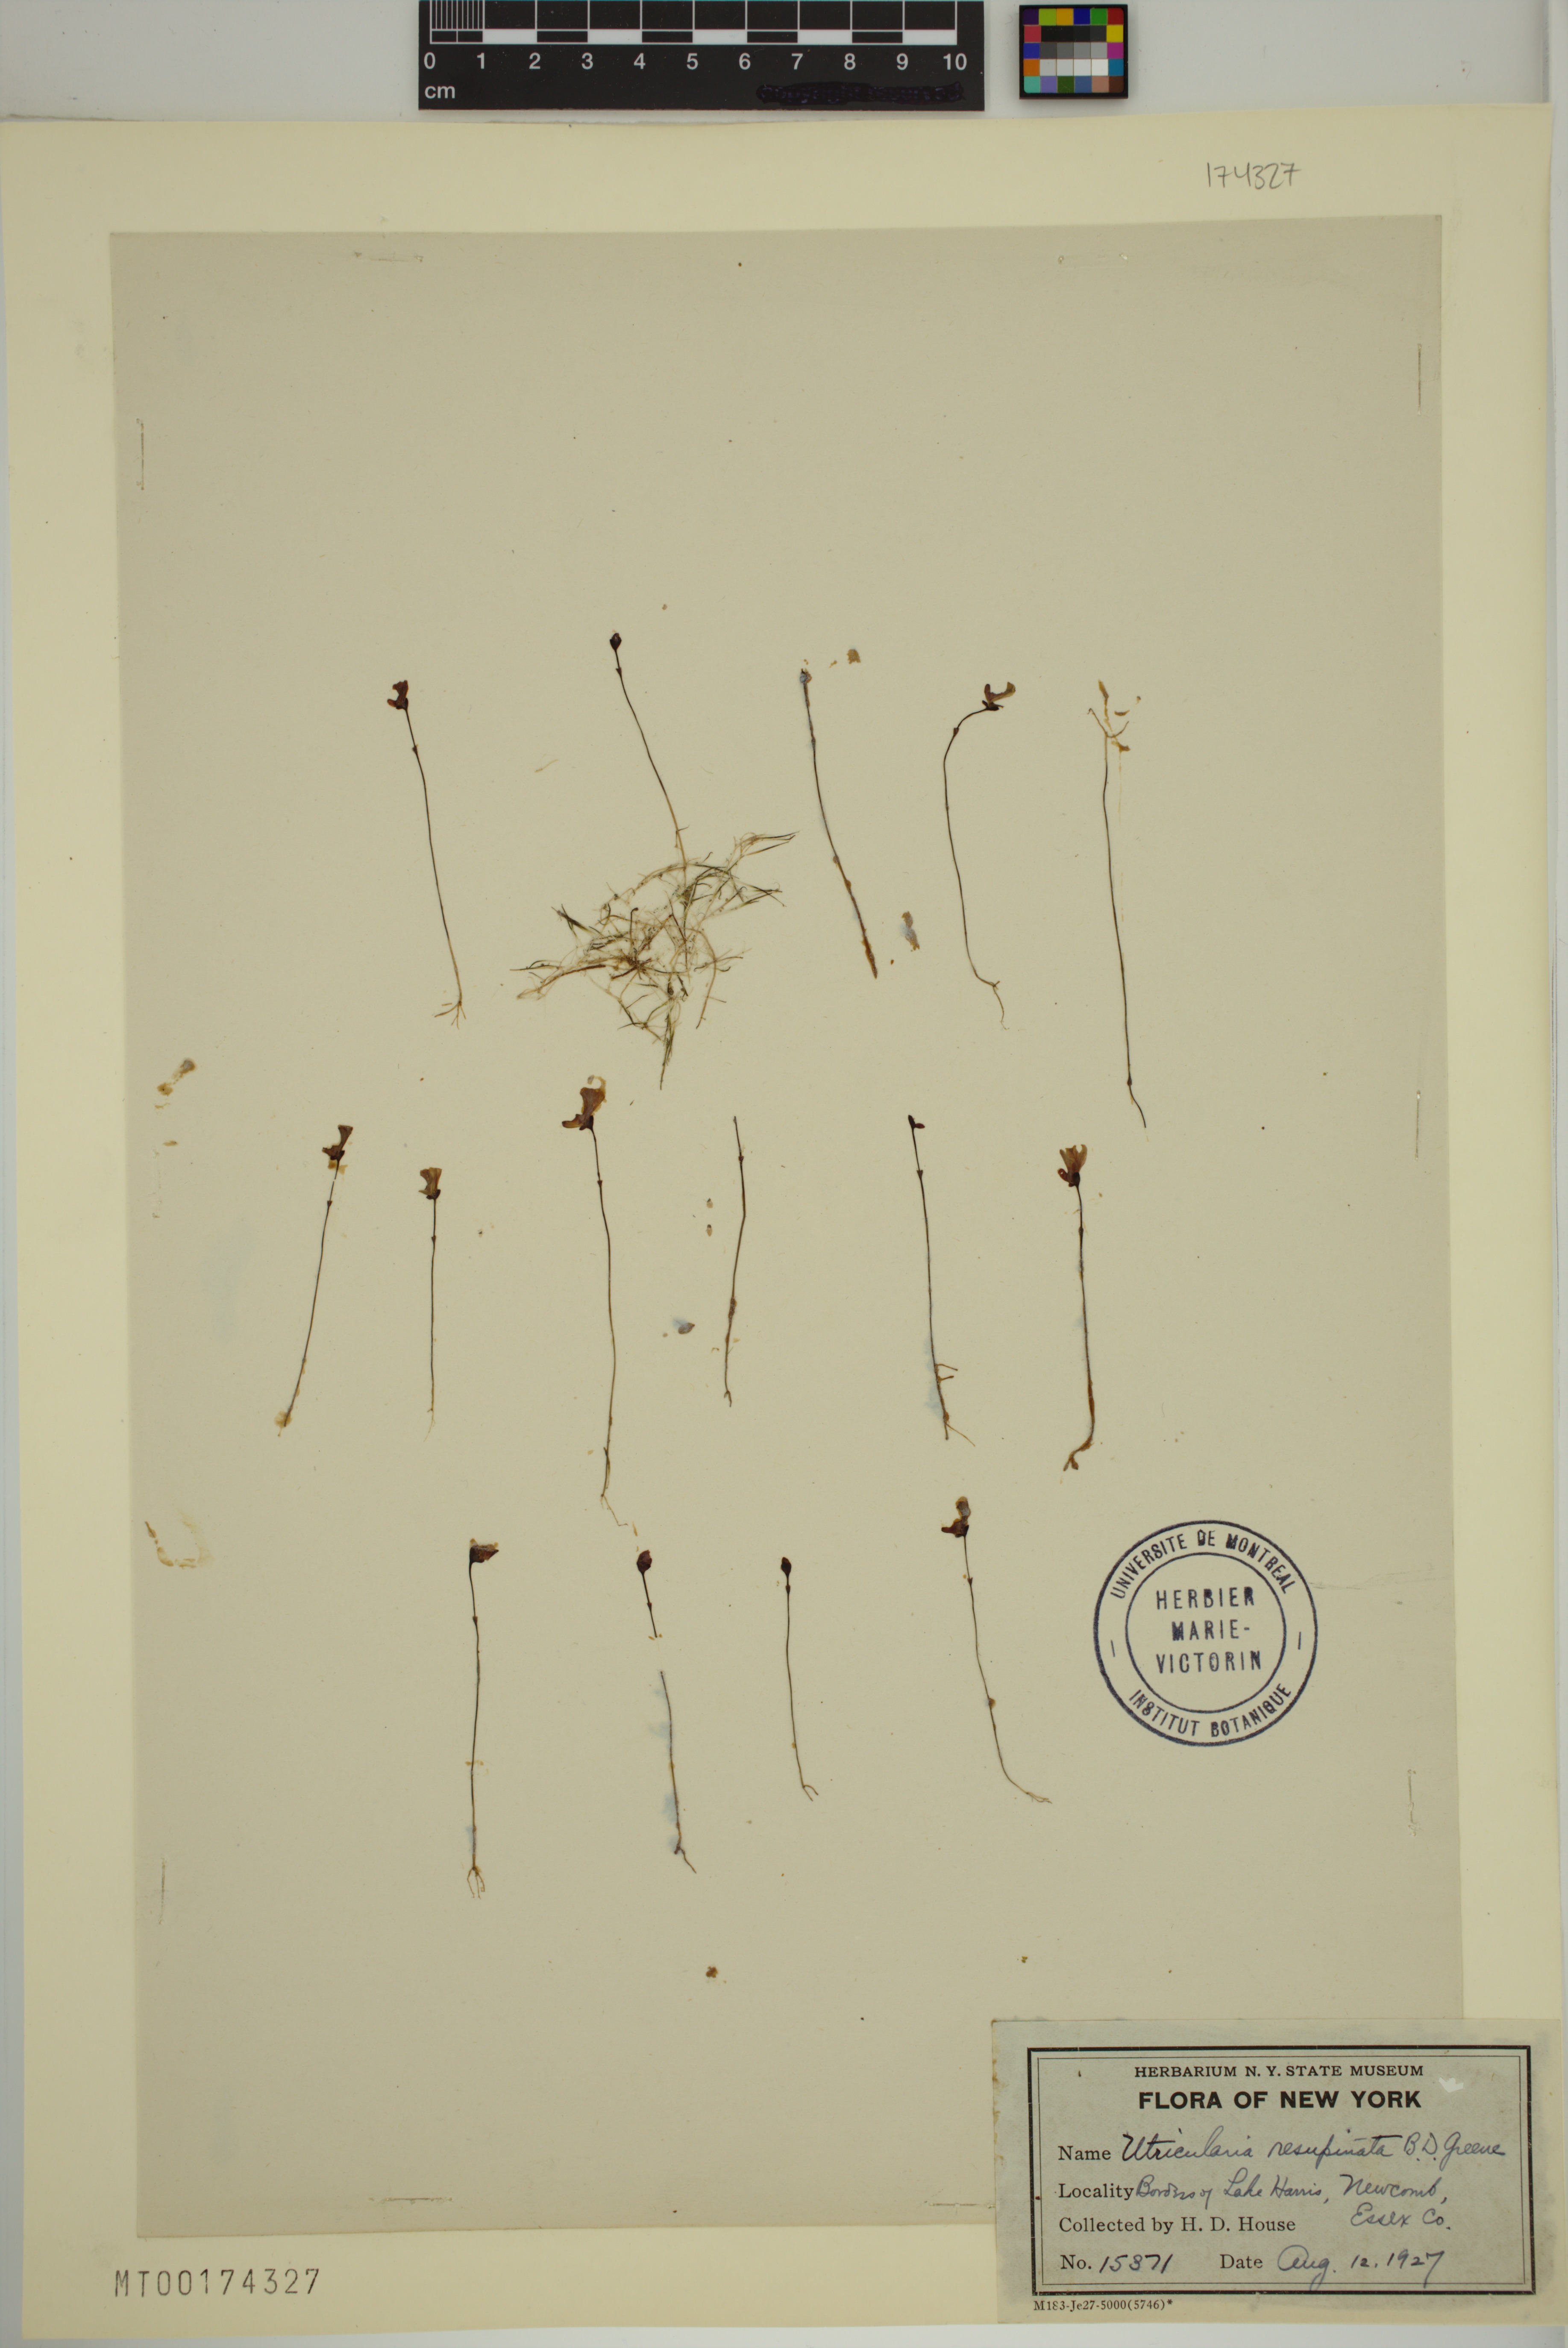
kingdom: Plantae
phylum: Tracheophyta
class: Magnoliopsida
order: Lamiales
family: Lentibulariaceae
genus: Utricularia
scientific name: Utricularia resupinata
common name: Northeastern bladderwort
